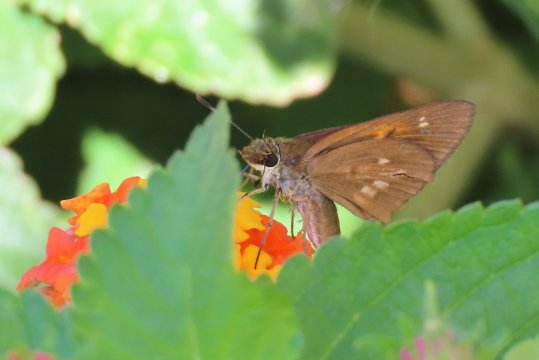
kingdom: Animalia
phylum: Arthropoda
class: Insecta
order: Lepidoptera
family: Hesperiidae
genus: Poanes
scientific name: Poanes viator
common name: Broad-winged Skipper
